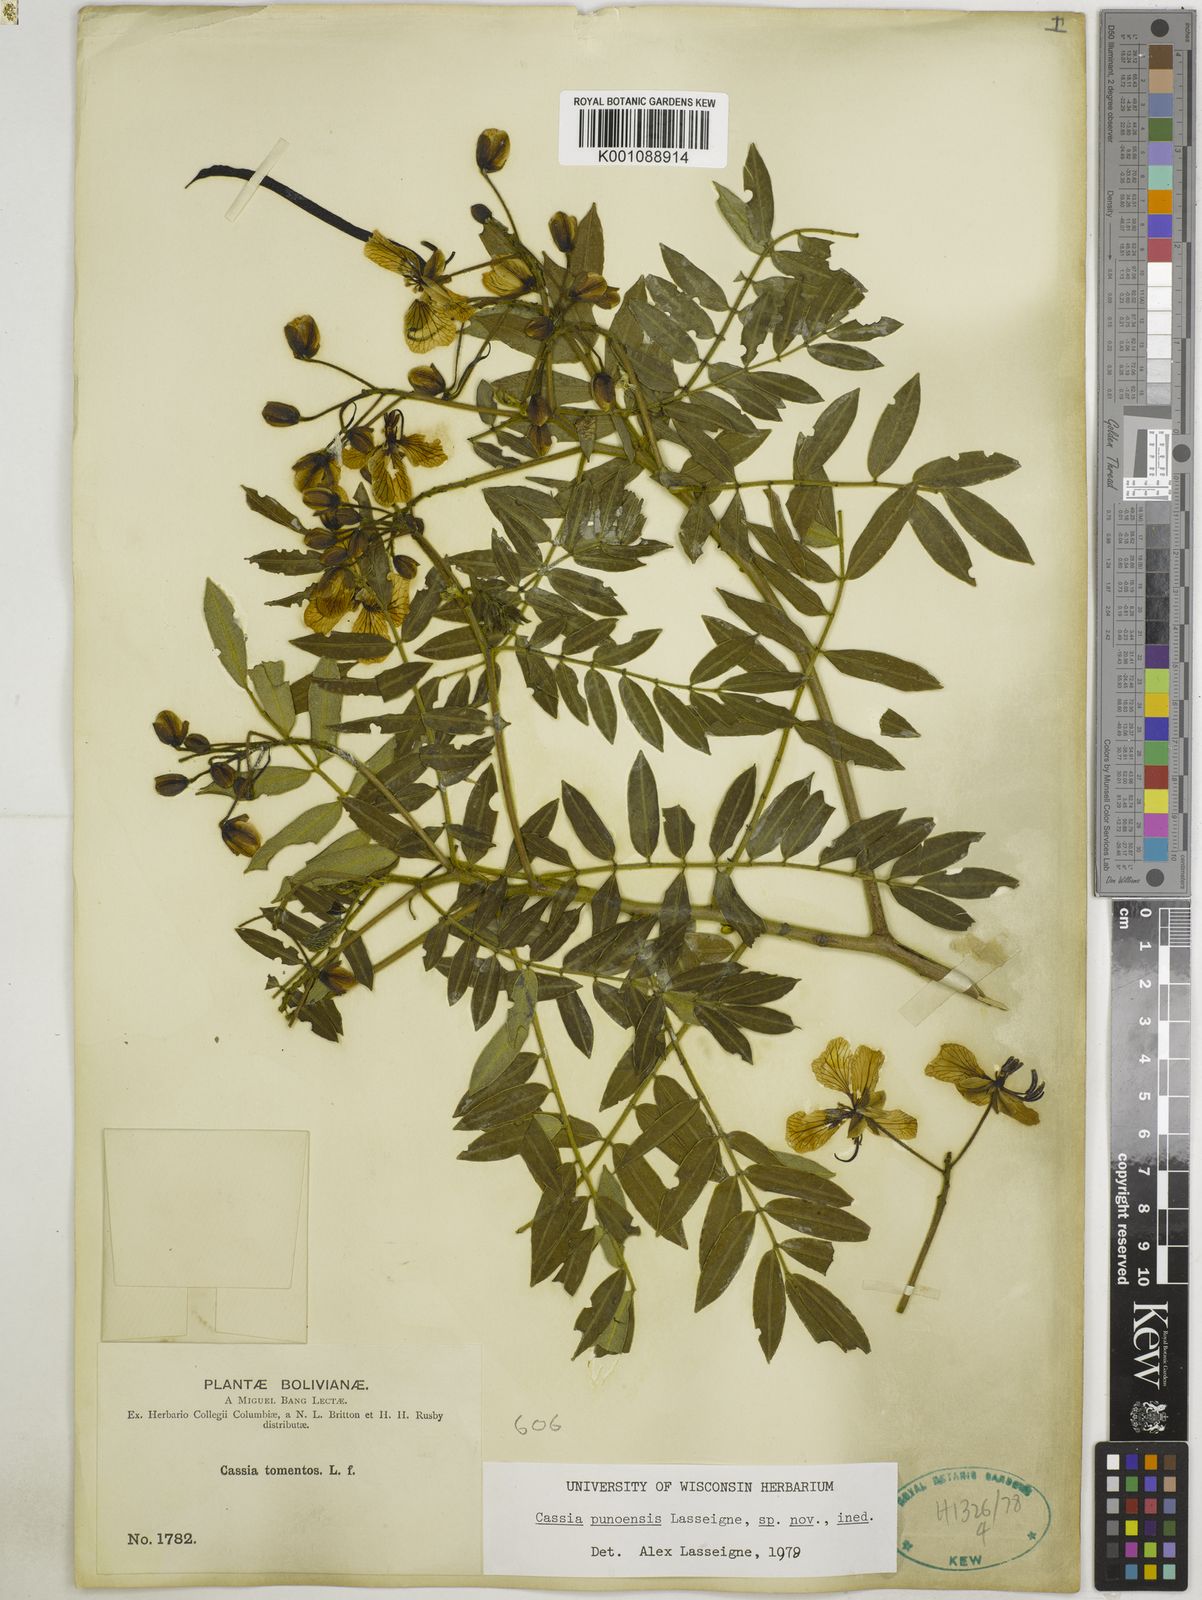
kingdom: Plantae
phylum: Tracheophyta
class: Magnoliopsida
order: Fabales
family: Fabaceae
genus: Senna
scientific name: Senna
